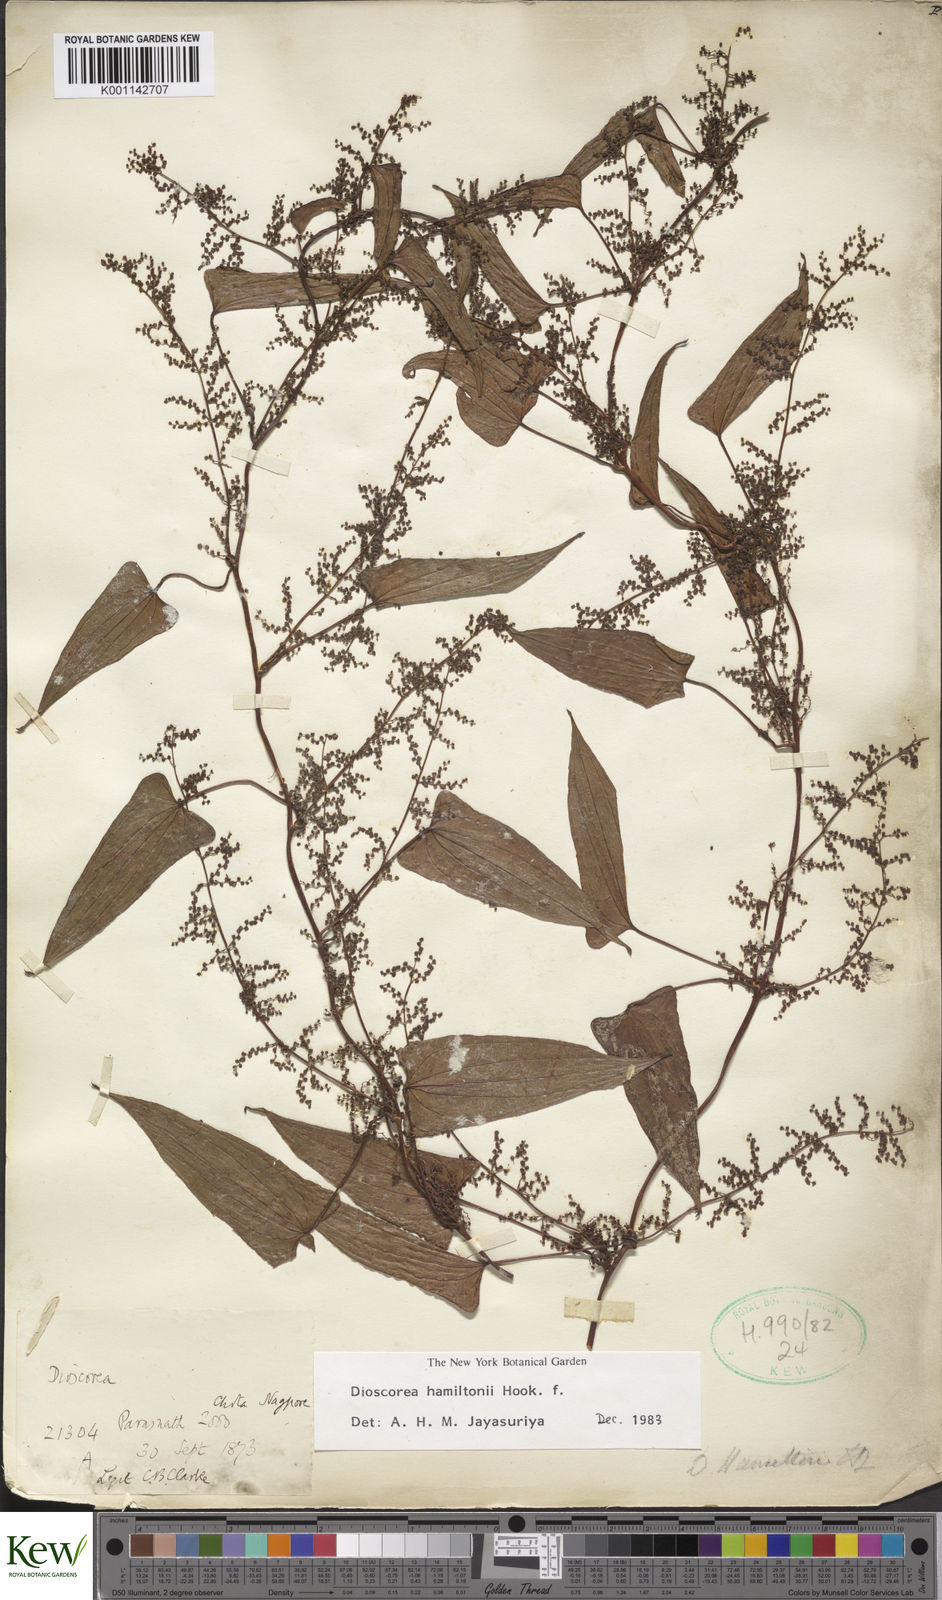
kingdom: Plantae
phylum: Tracheophyta
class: Liliopsida
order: Dioscoreales
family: Dioscoreaceae
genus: Dioscorea
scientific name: Dioscorea
